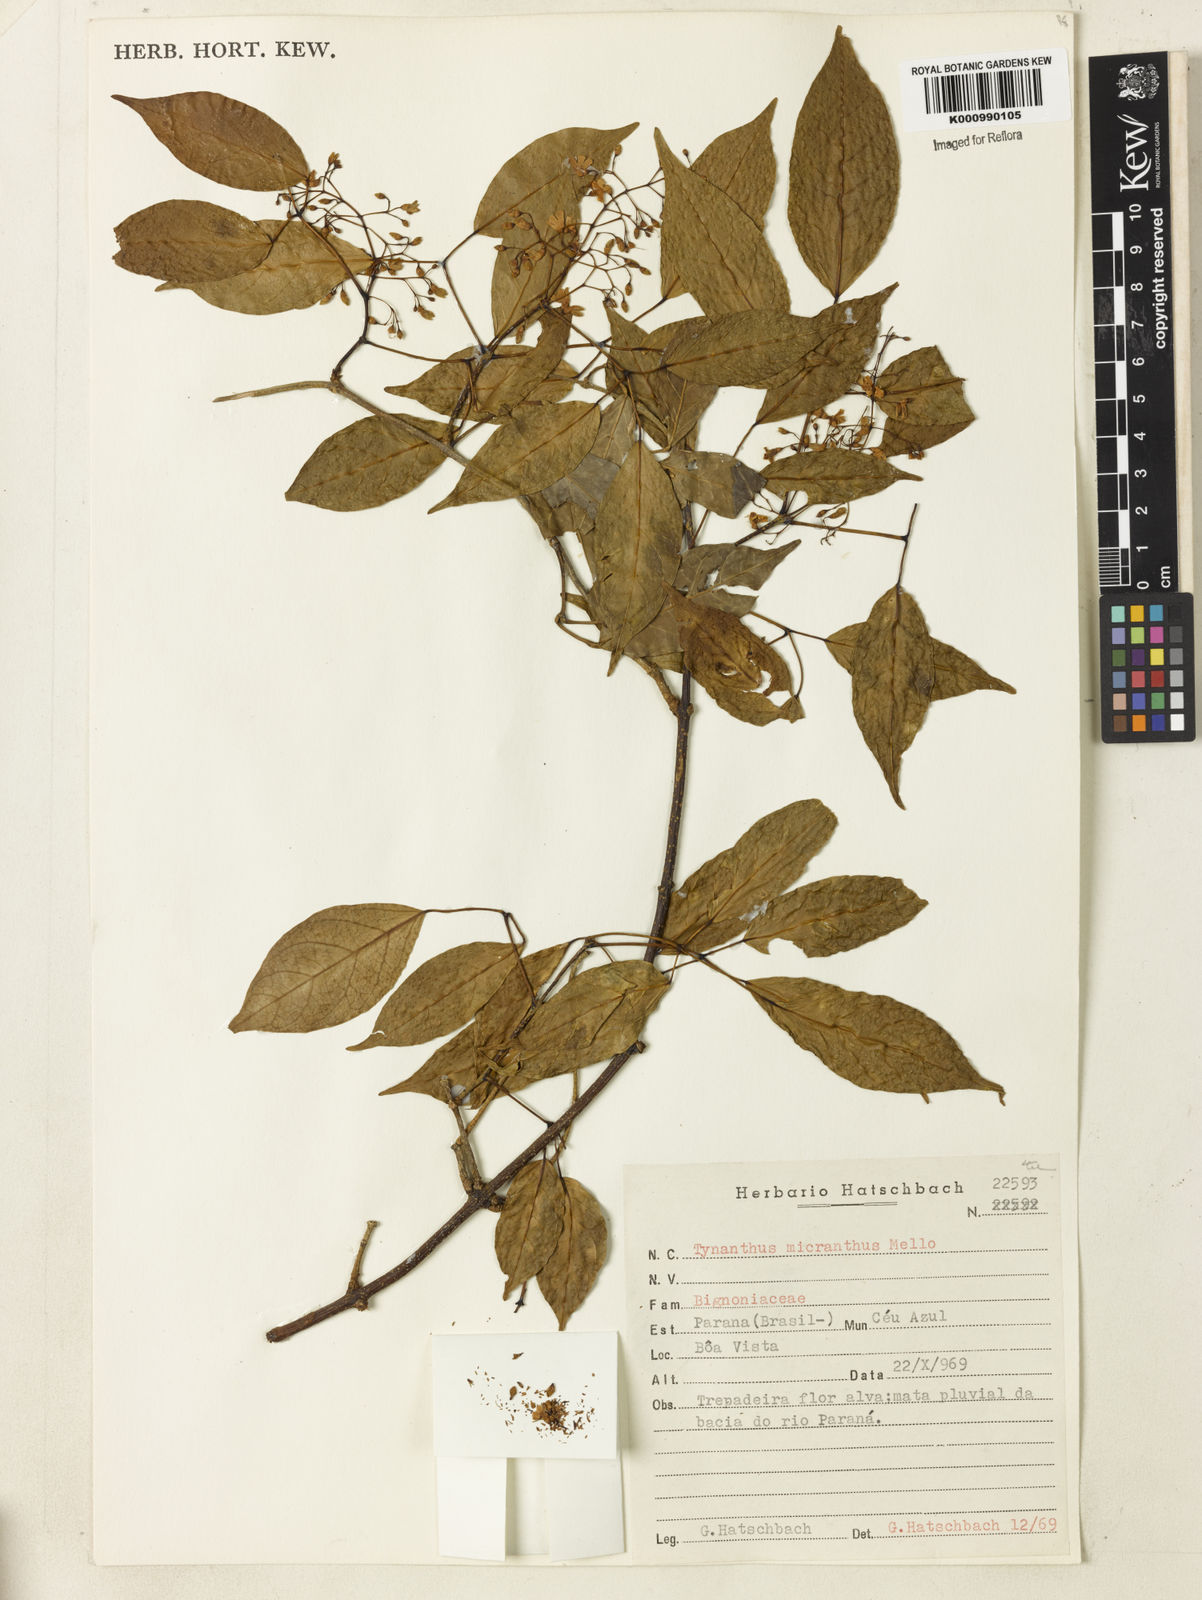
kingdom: Plantae
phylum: Tracheophyta
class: Magnoliopsida
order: Lamiales
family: Bignoniaceae
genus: Tynanthus
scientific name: Tynanthus
